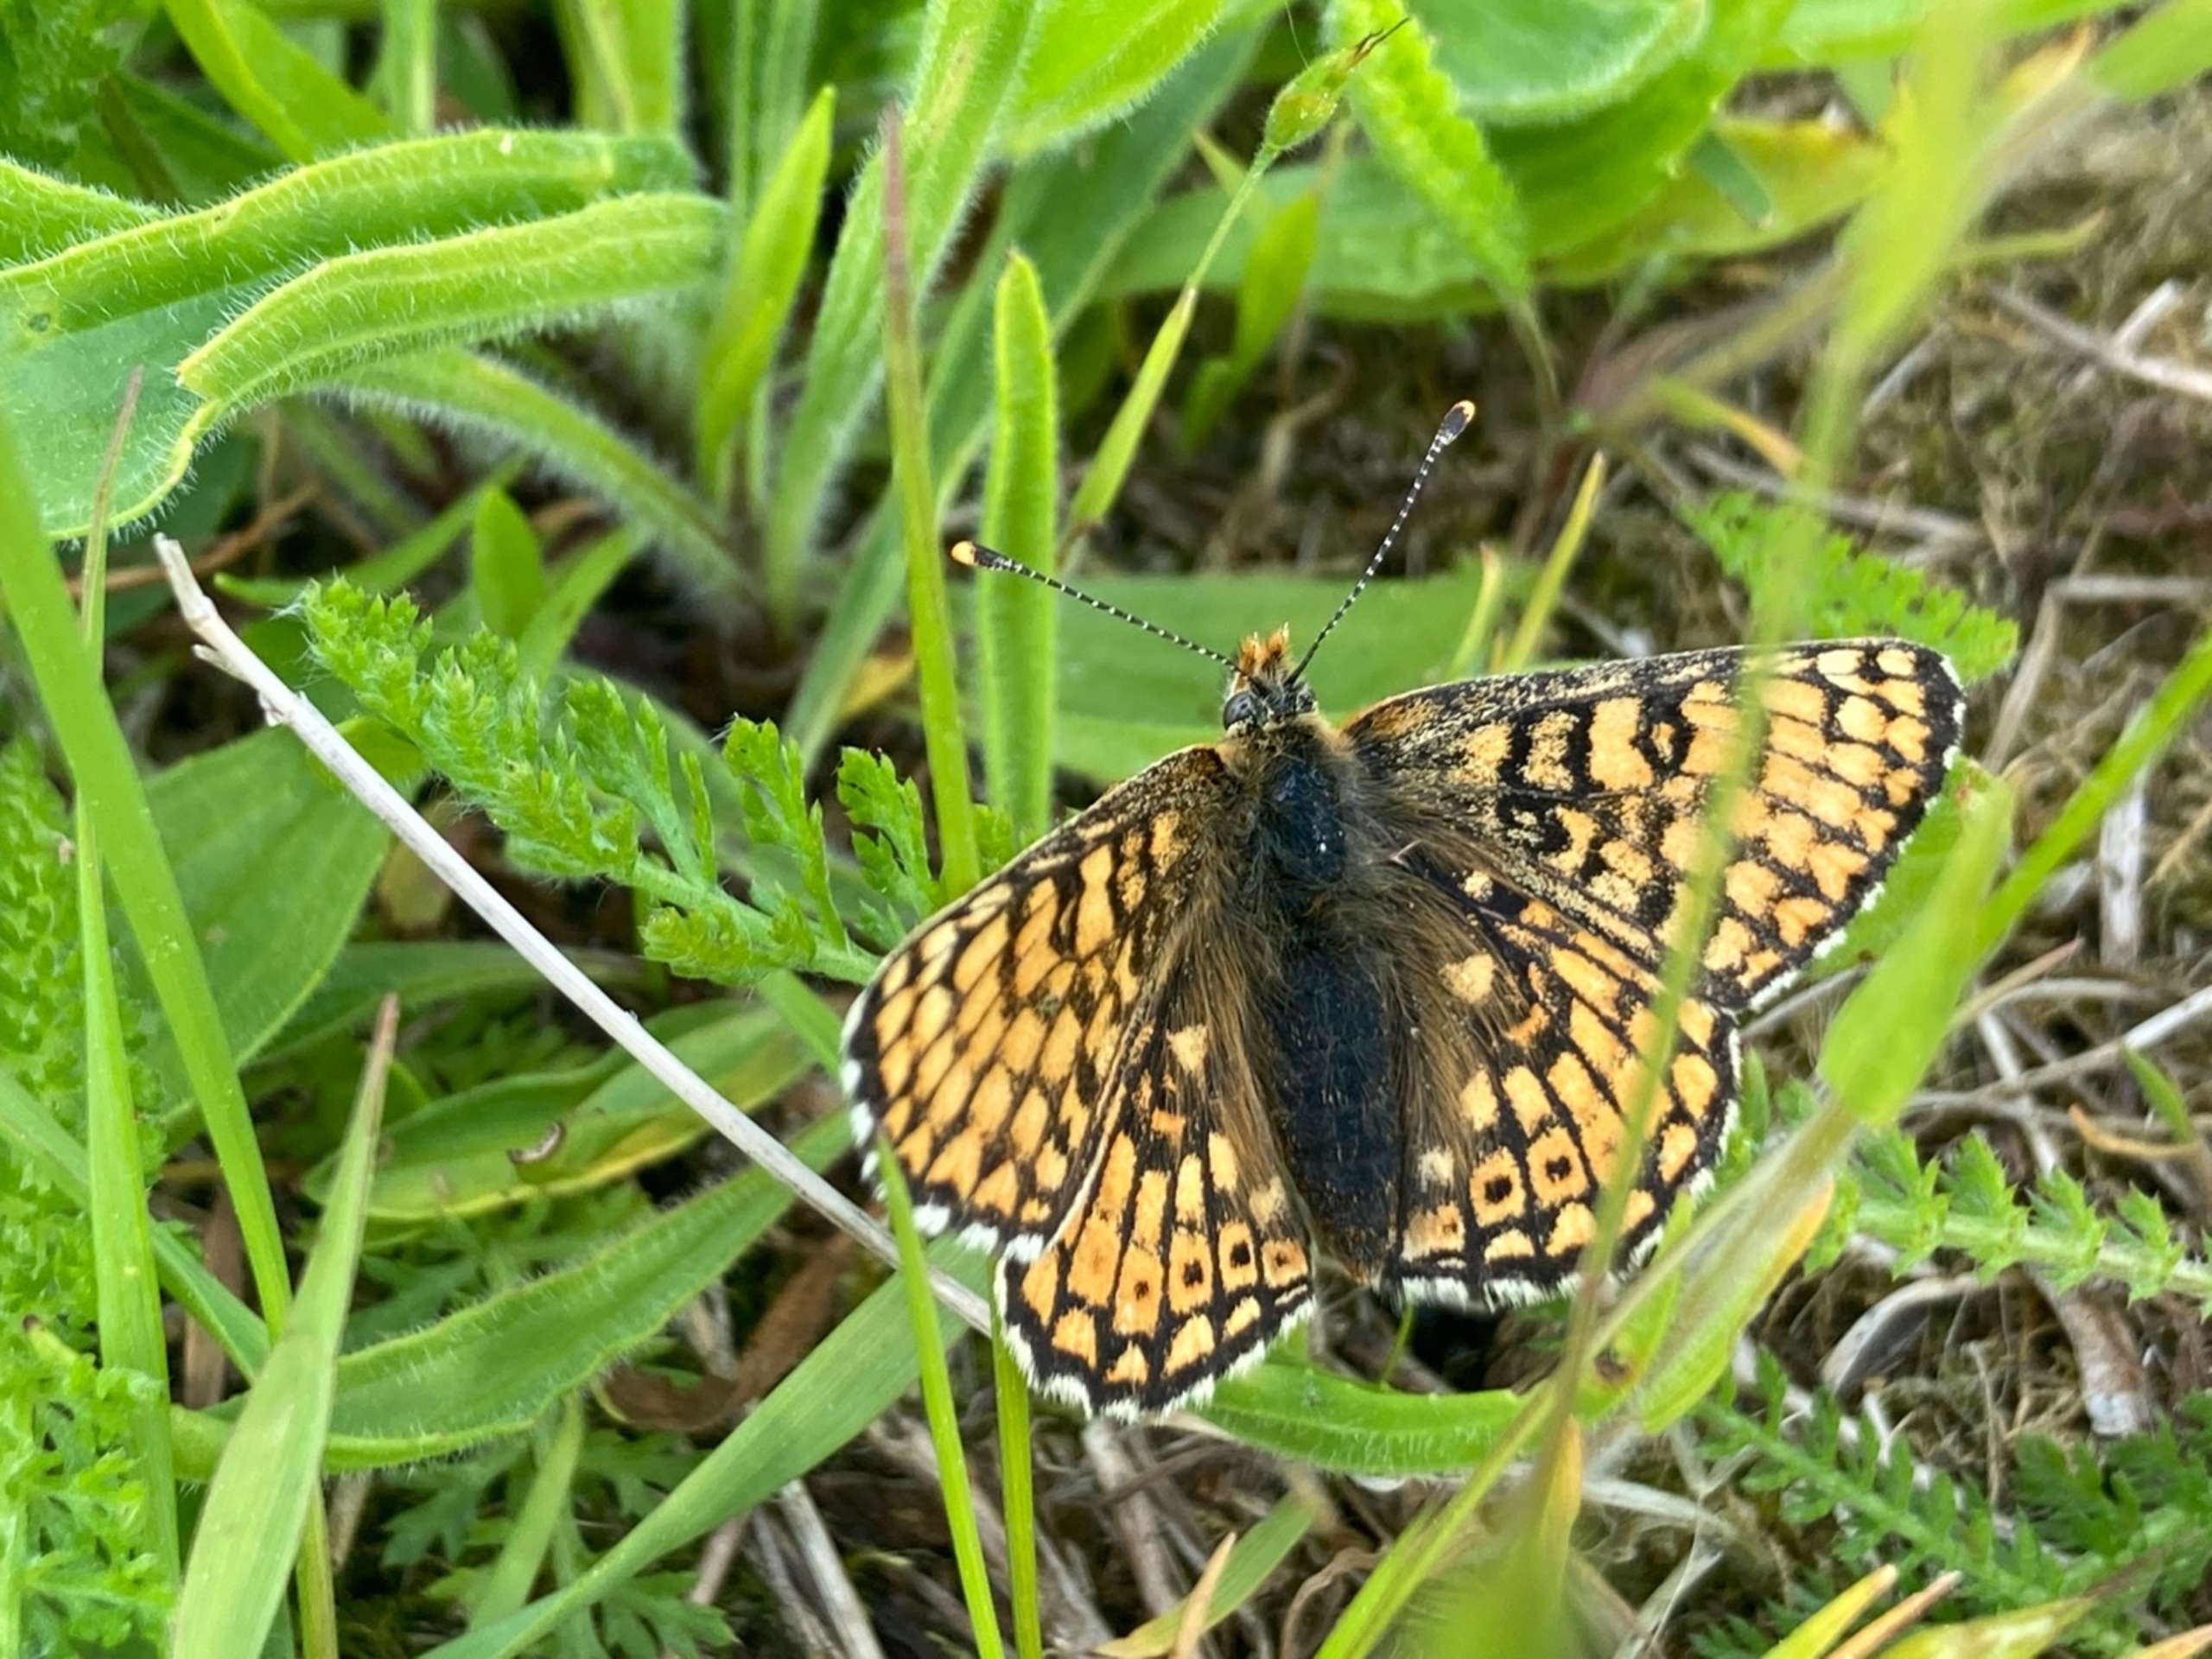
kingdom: Animalia
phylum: Arthropoda
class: Insecta
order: Lepidoptera
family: Nymphalidae
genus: Melitaea
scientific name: Melitaea cinxia
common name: Okkergul pletvinge
